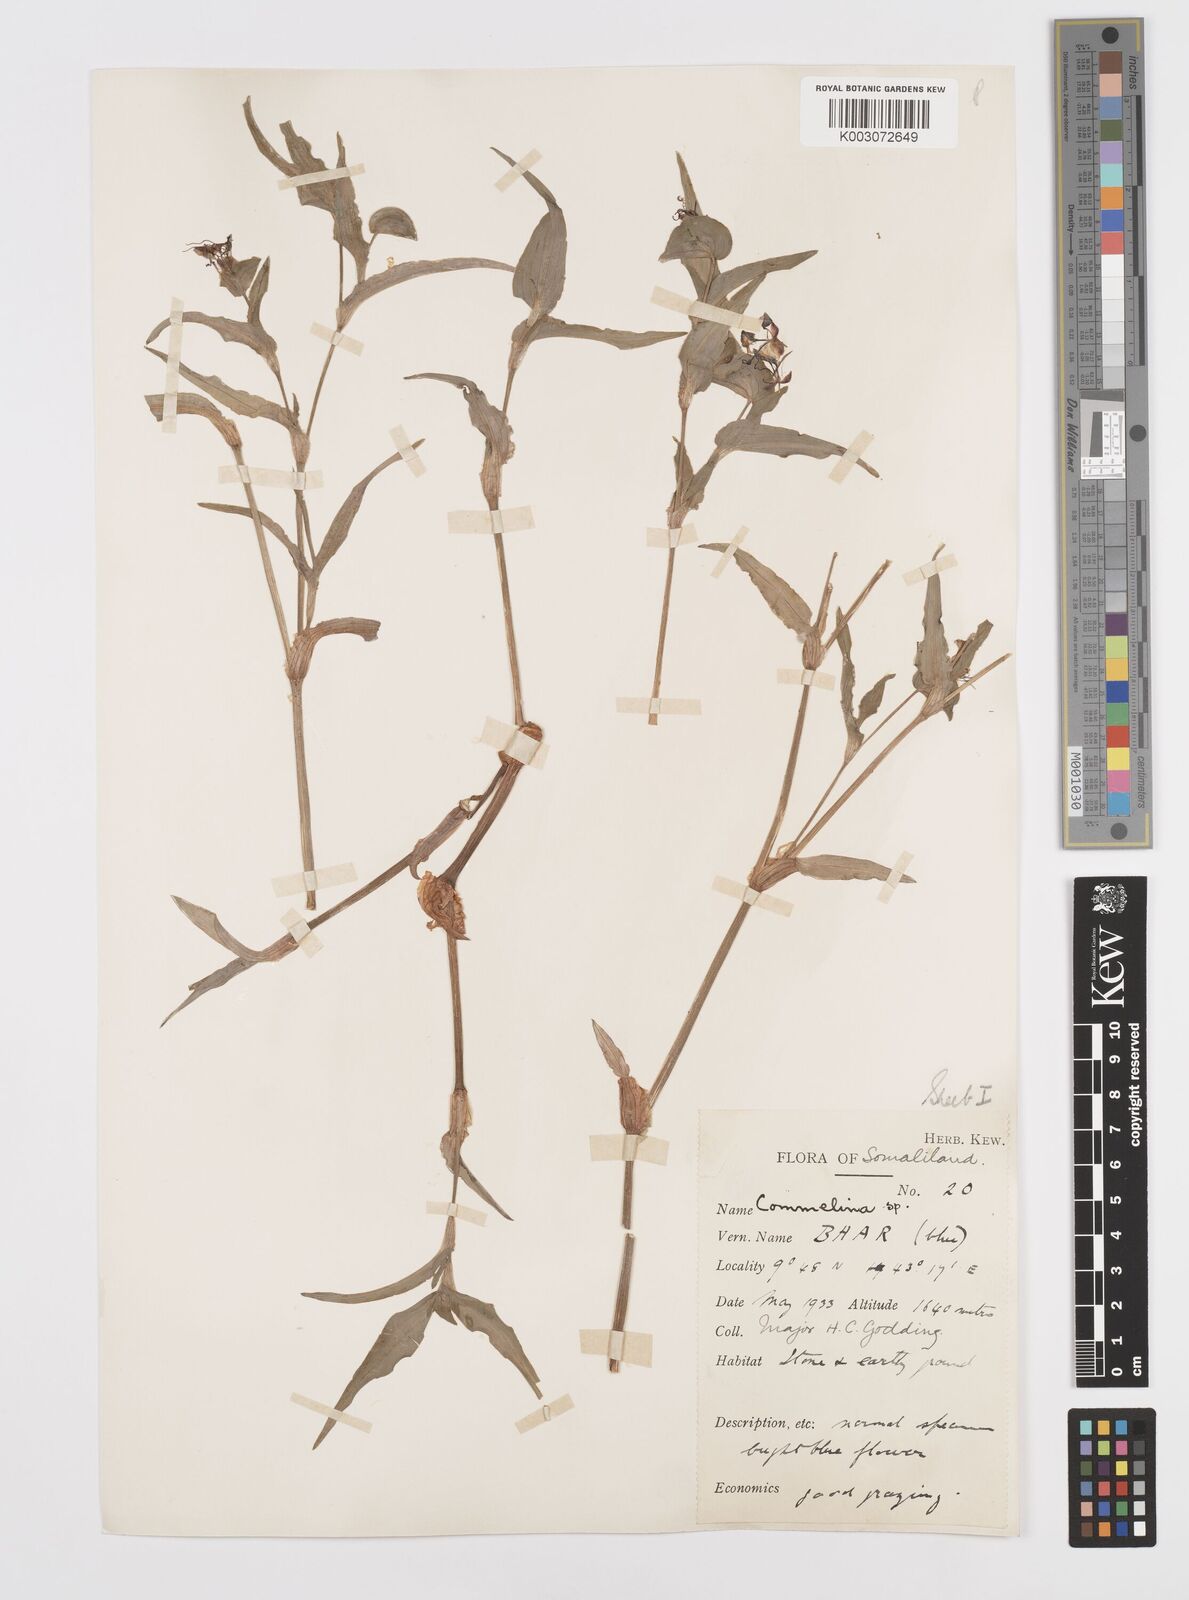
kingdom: Plantae
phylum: Tracheophyta
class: Liliopsida
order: Commelinales
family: Commelinaceae
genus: Commelina
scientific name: Commelina stefaniniana
